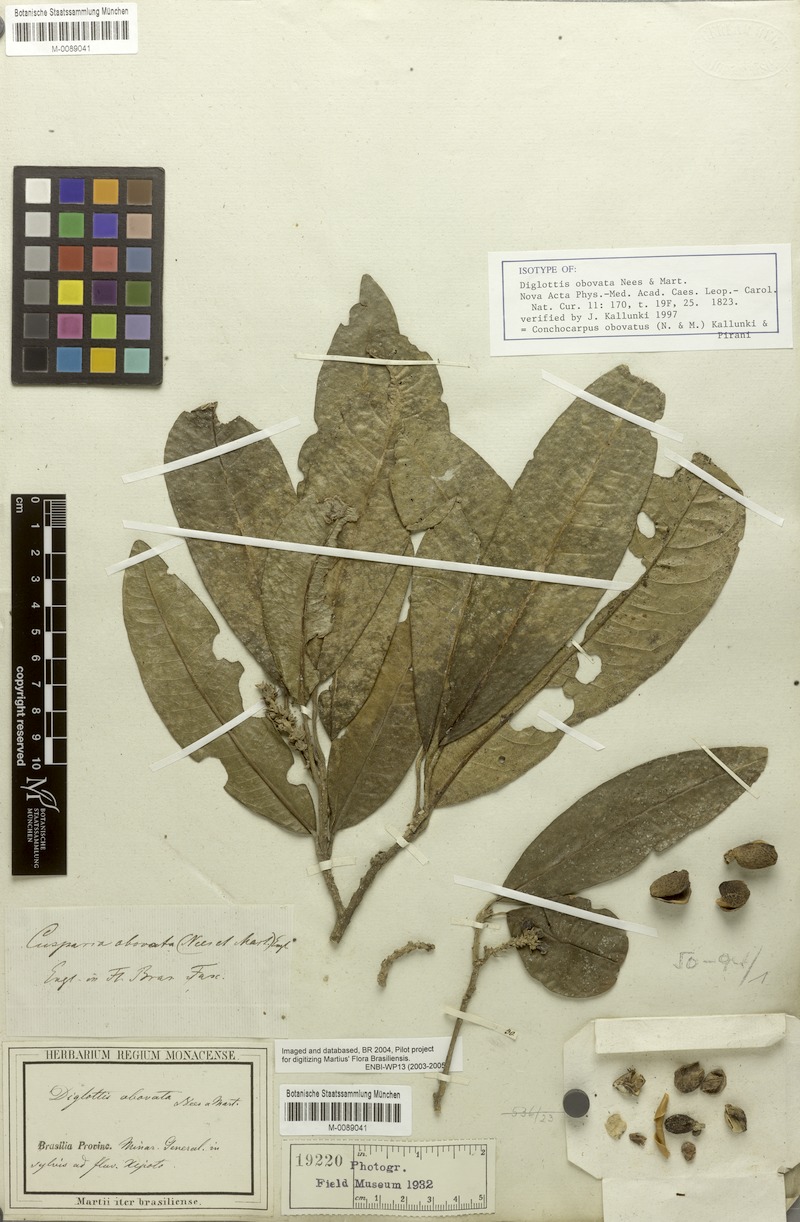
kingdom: Plantae
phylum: Tracheophyta
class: Magnoliopsida
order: Sapindales
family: Rutaceae
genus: Conchocarpus
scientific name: Conchocarpus obovatus
